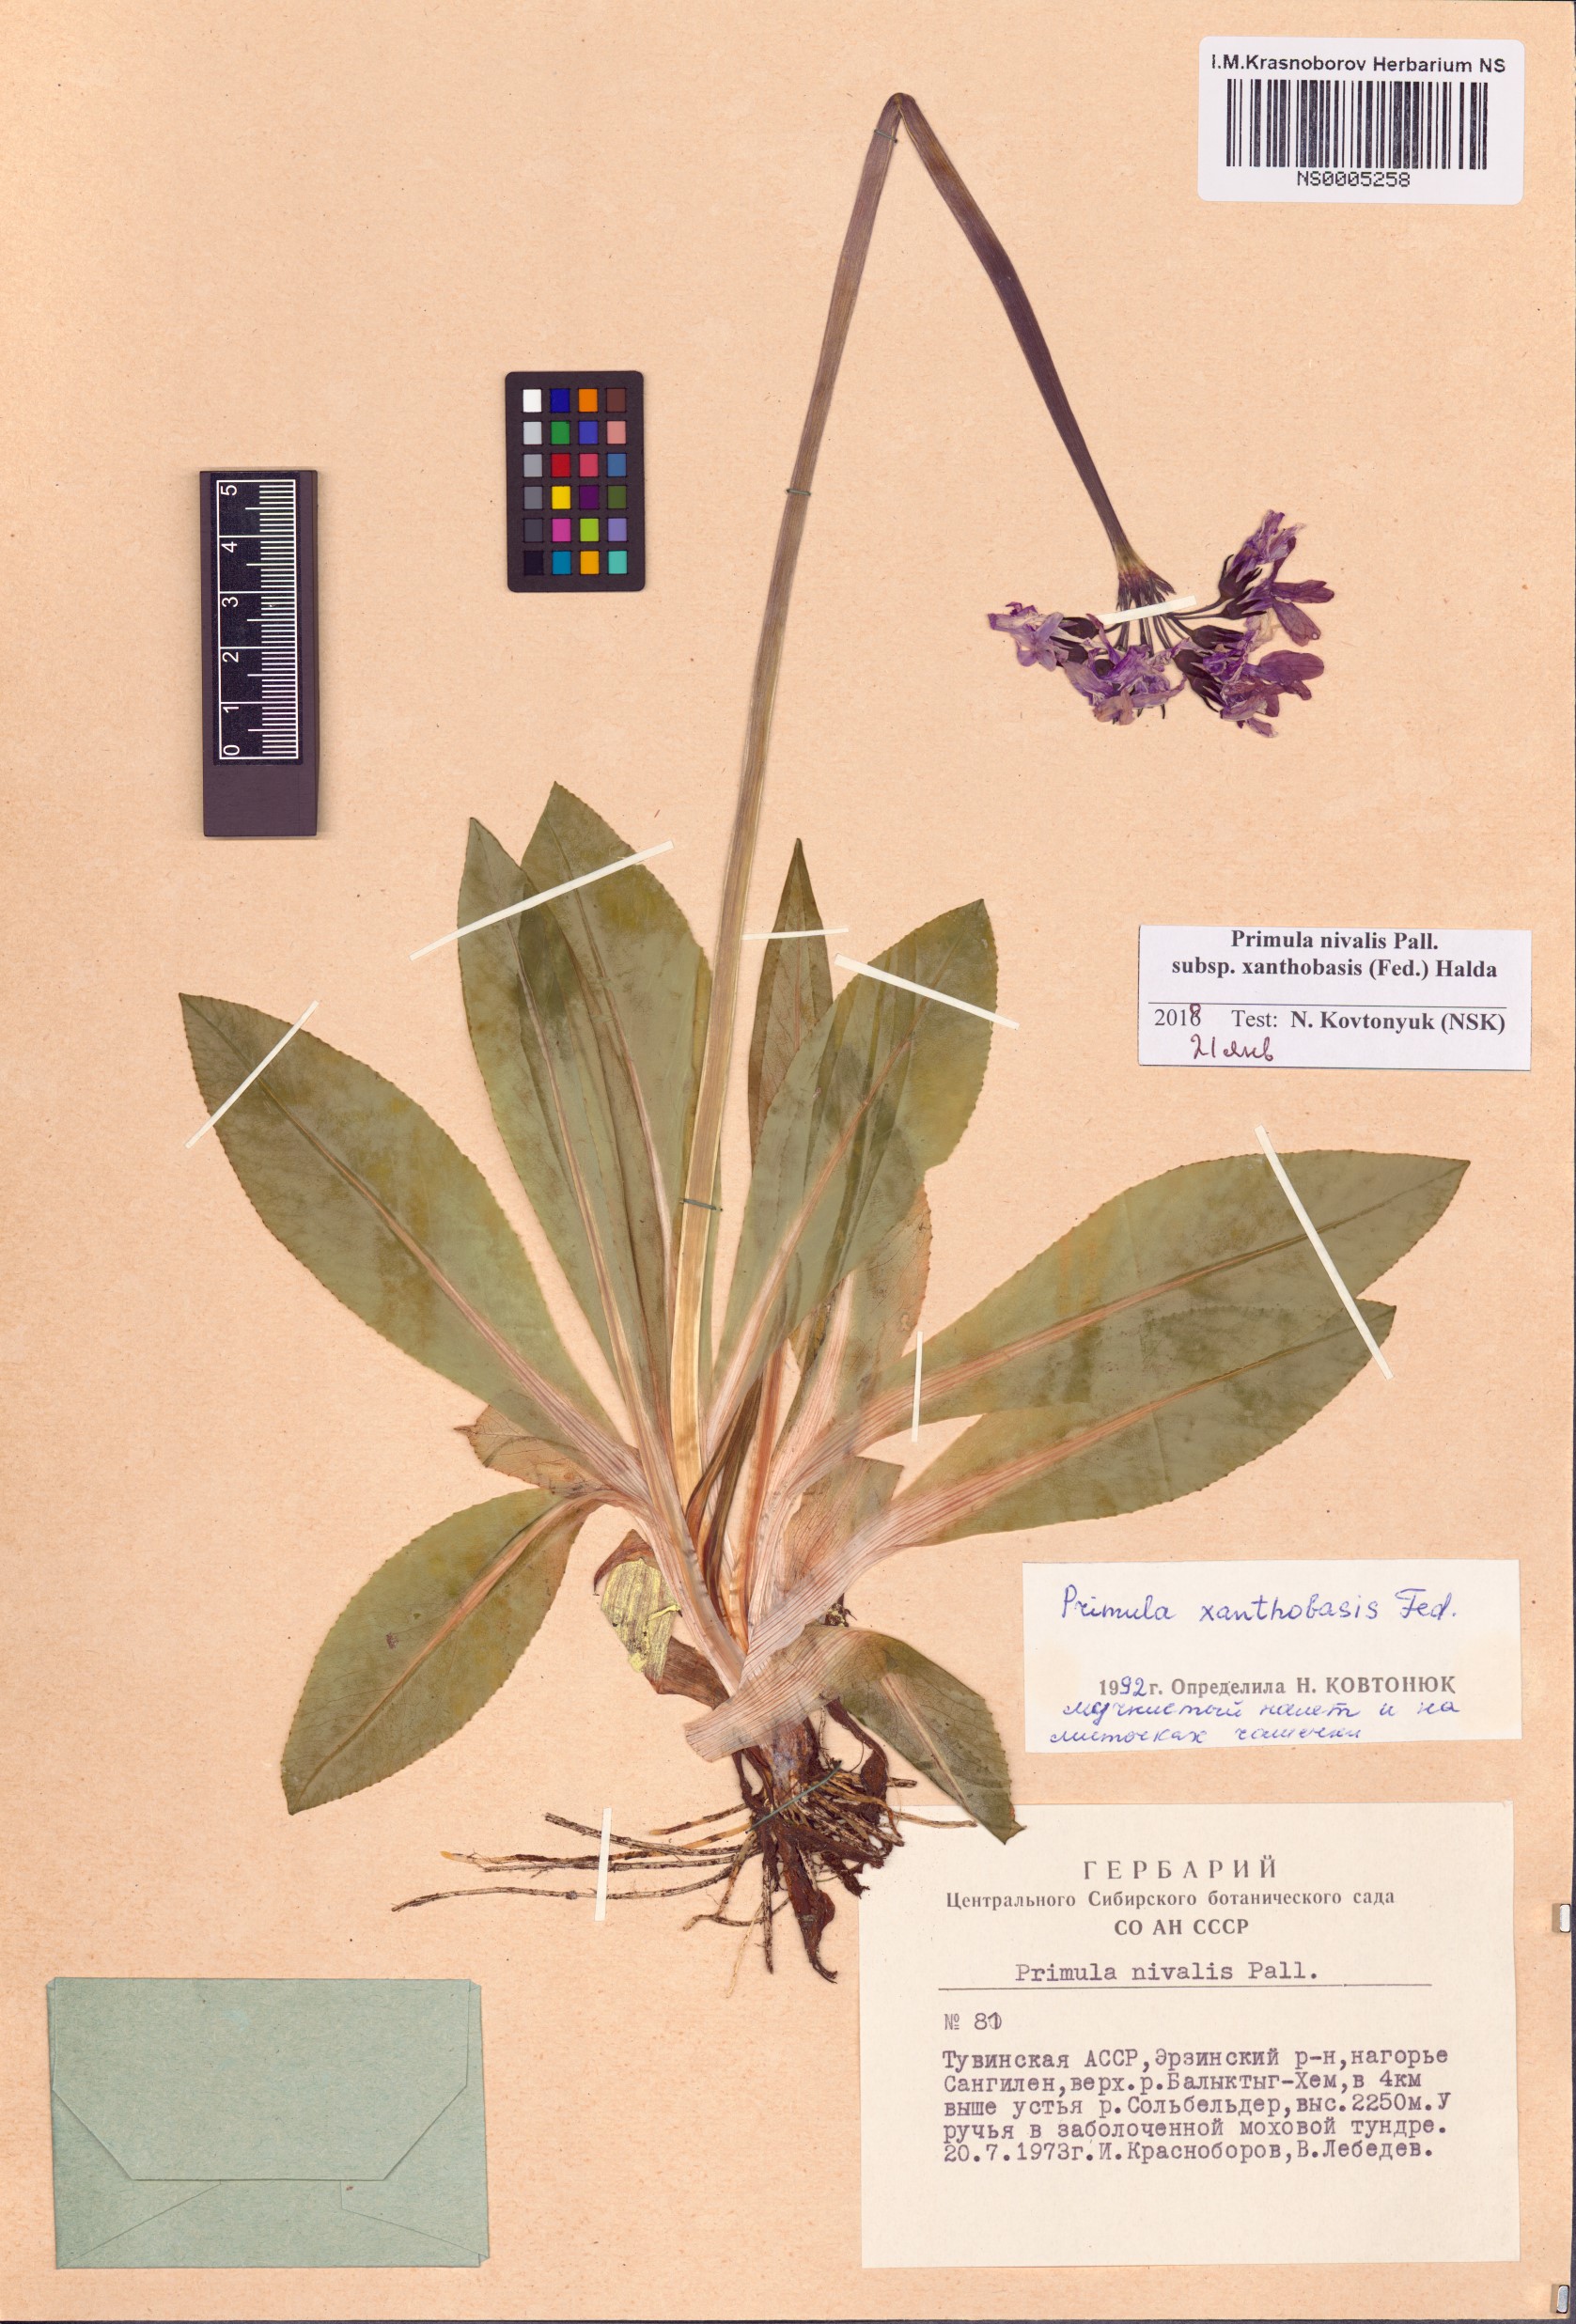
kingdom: Plantae
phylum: Tracheophyta
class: Magnoliopsida
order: Ericales
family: Primulaceae
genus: Primula
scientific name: Primula nivalis
